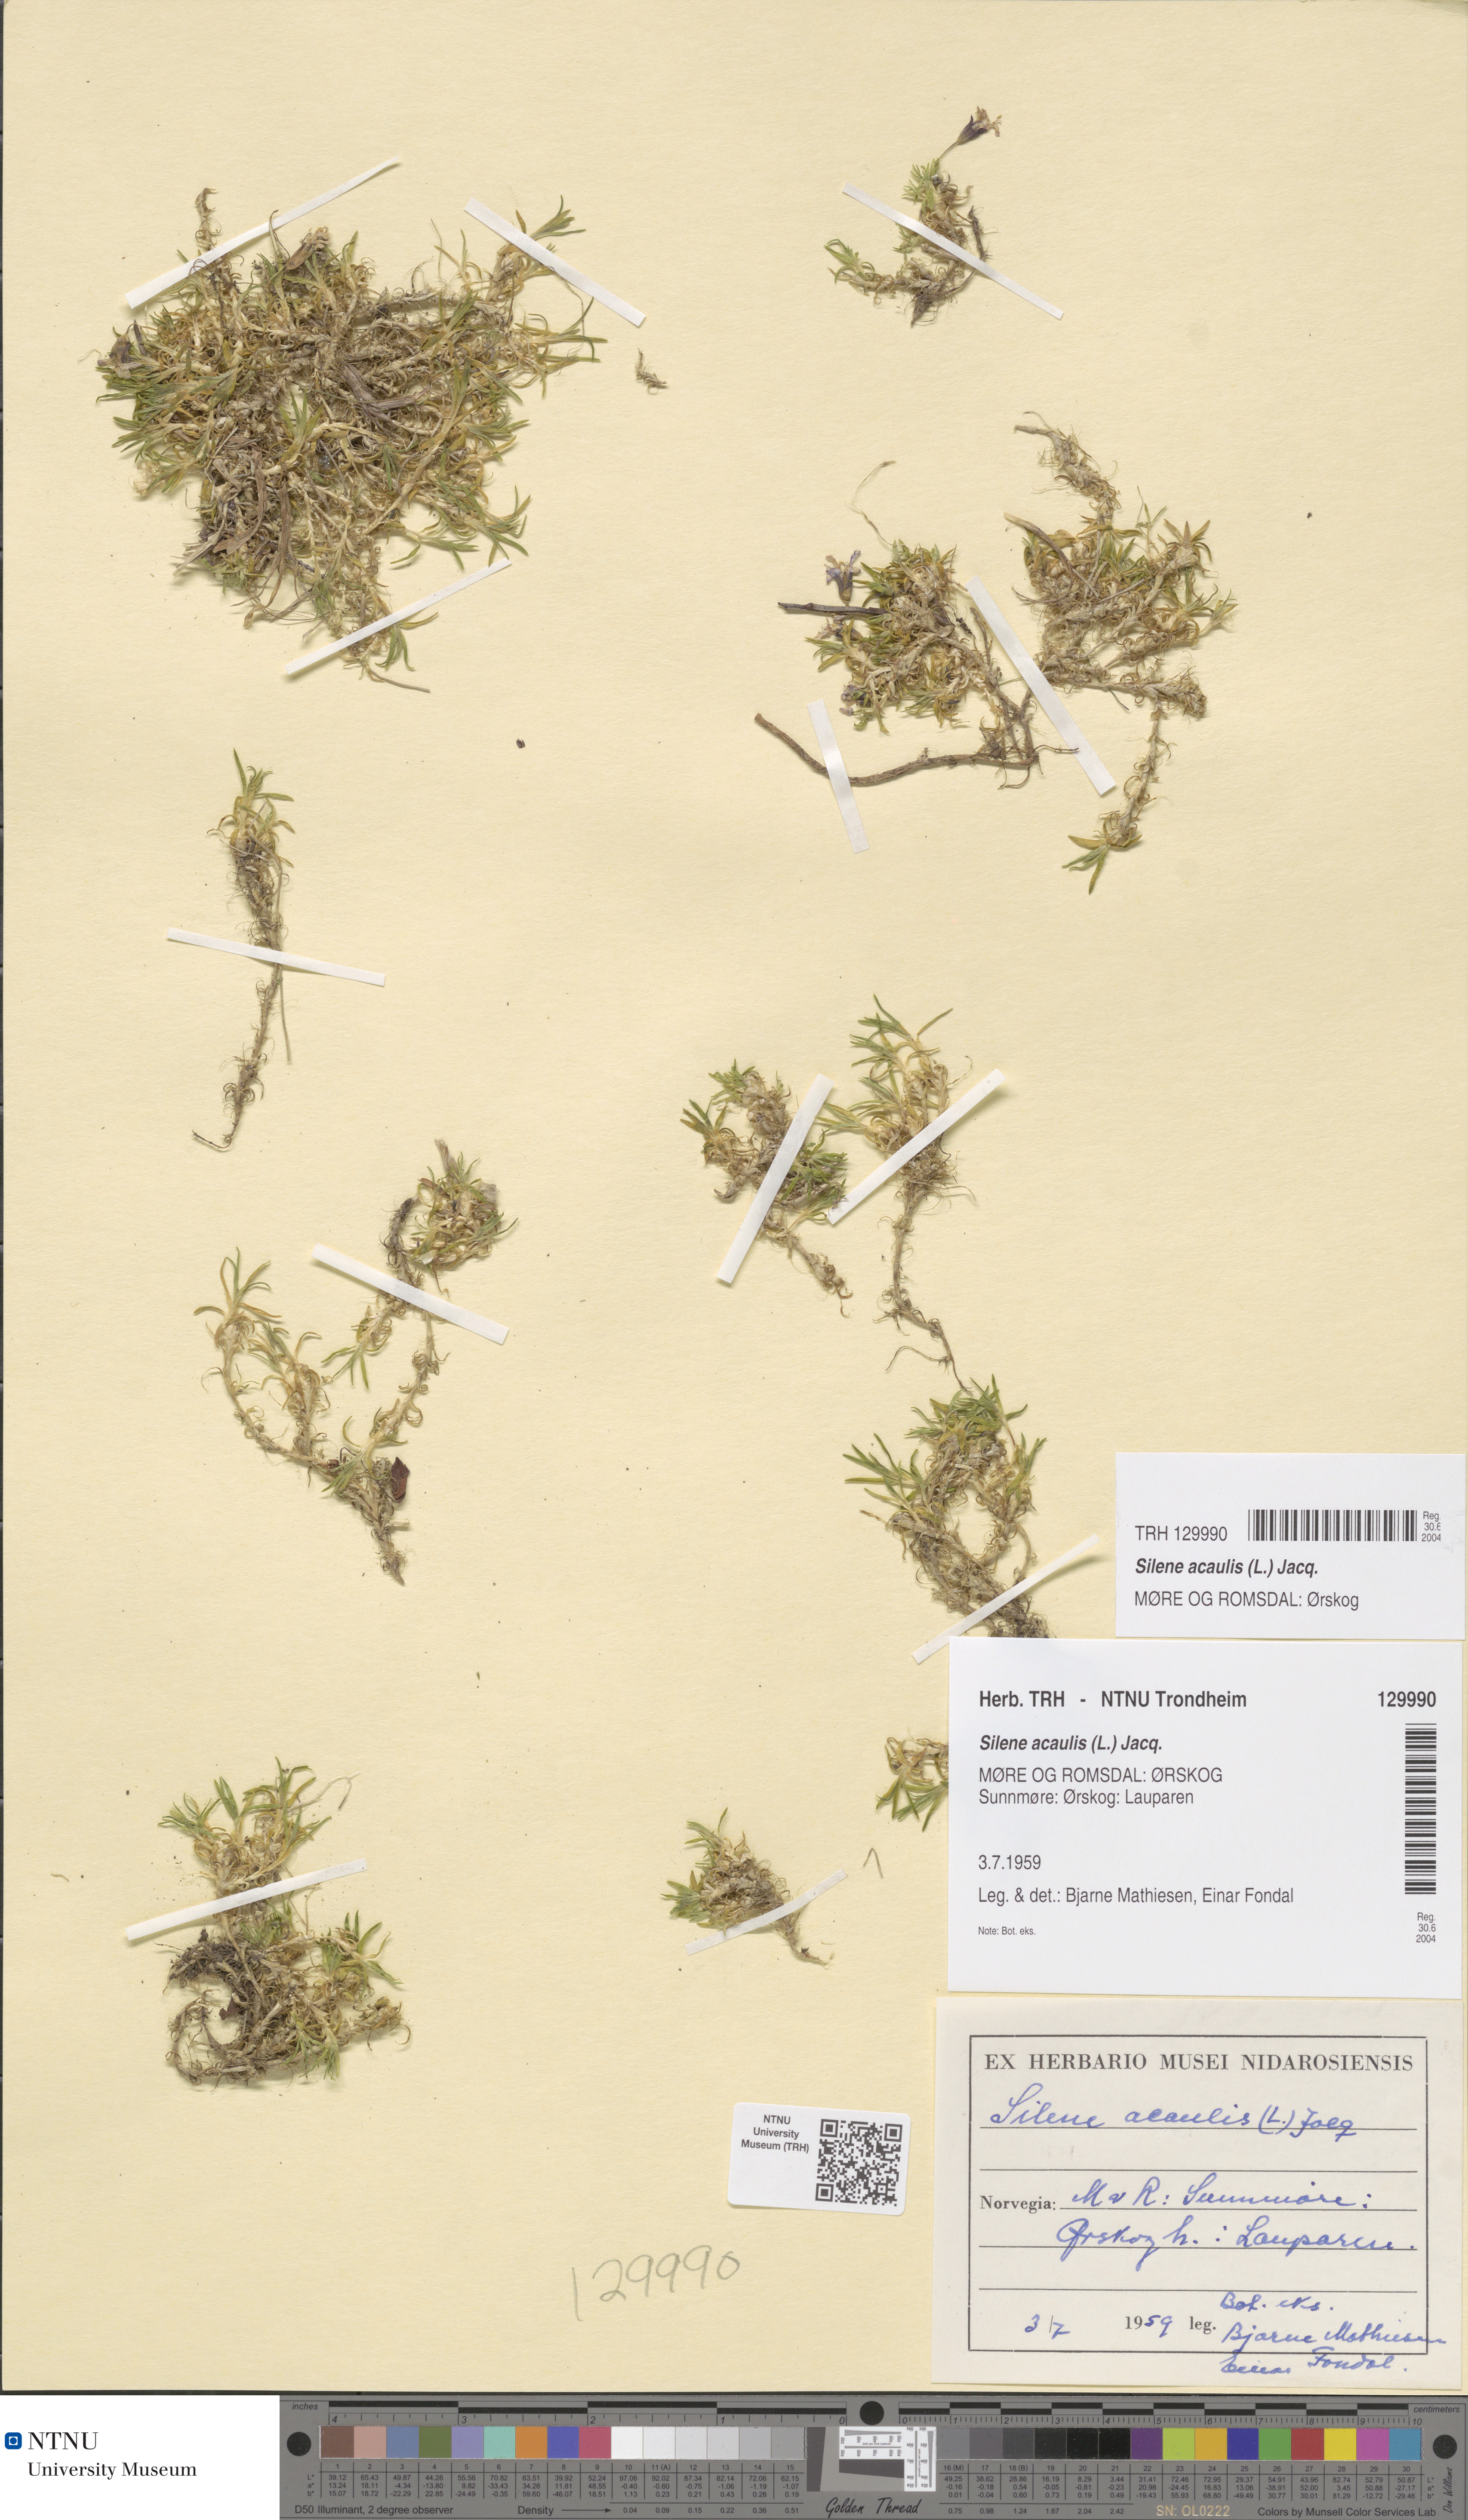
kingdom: Plantae
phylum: Tracheophyta
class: Magnoliopsida
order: Caryophyllales
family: Caryophyllaceae
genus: Silene
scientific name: Silene acaulis
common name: Moss campion
